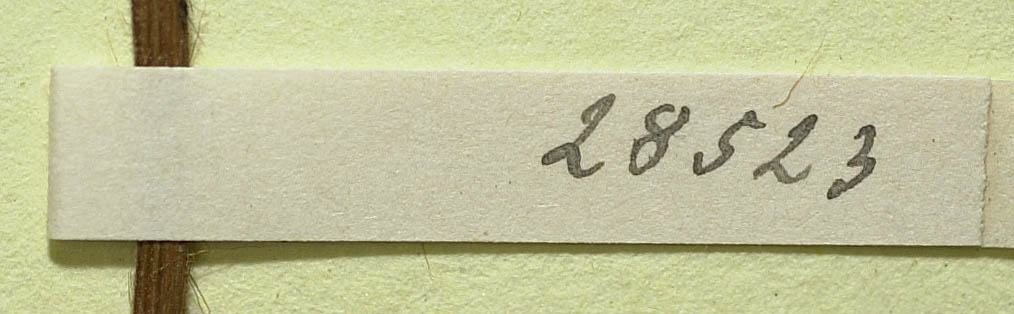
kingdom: Plantae
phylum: Tracheophyta
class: Magnoliopsida
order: Asterales
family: Asteraceae
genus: Pilosella
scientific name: Pilosella officinarum
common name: Mouse-ear hawkweed
